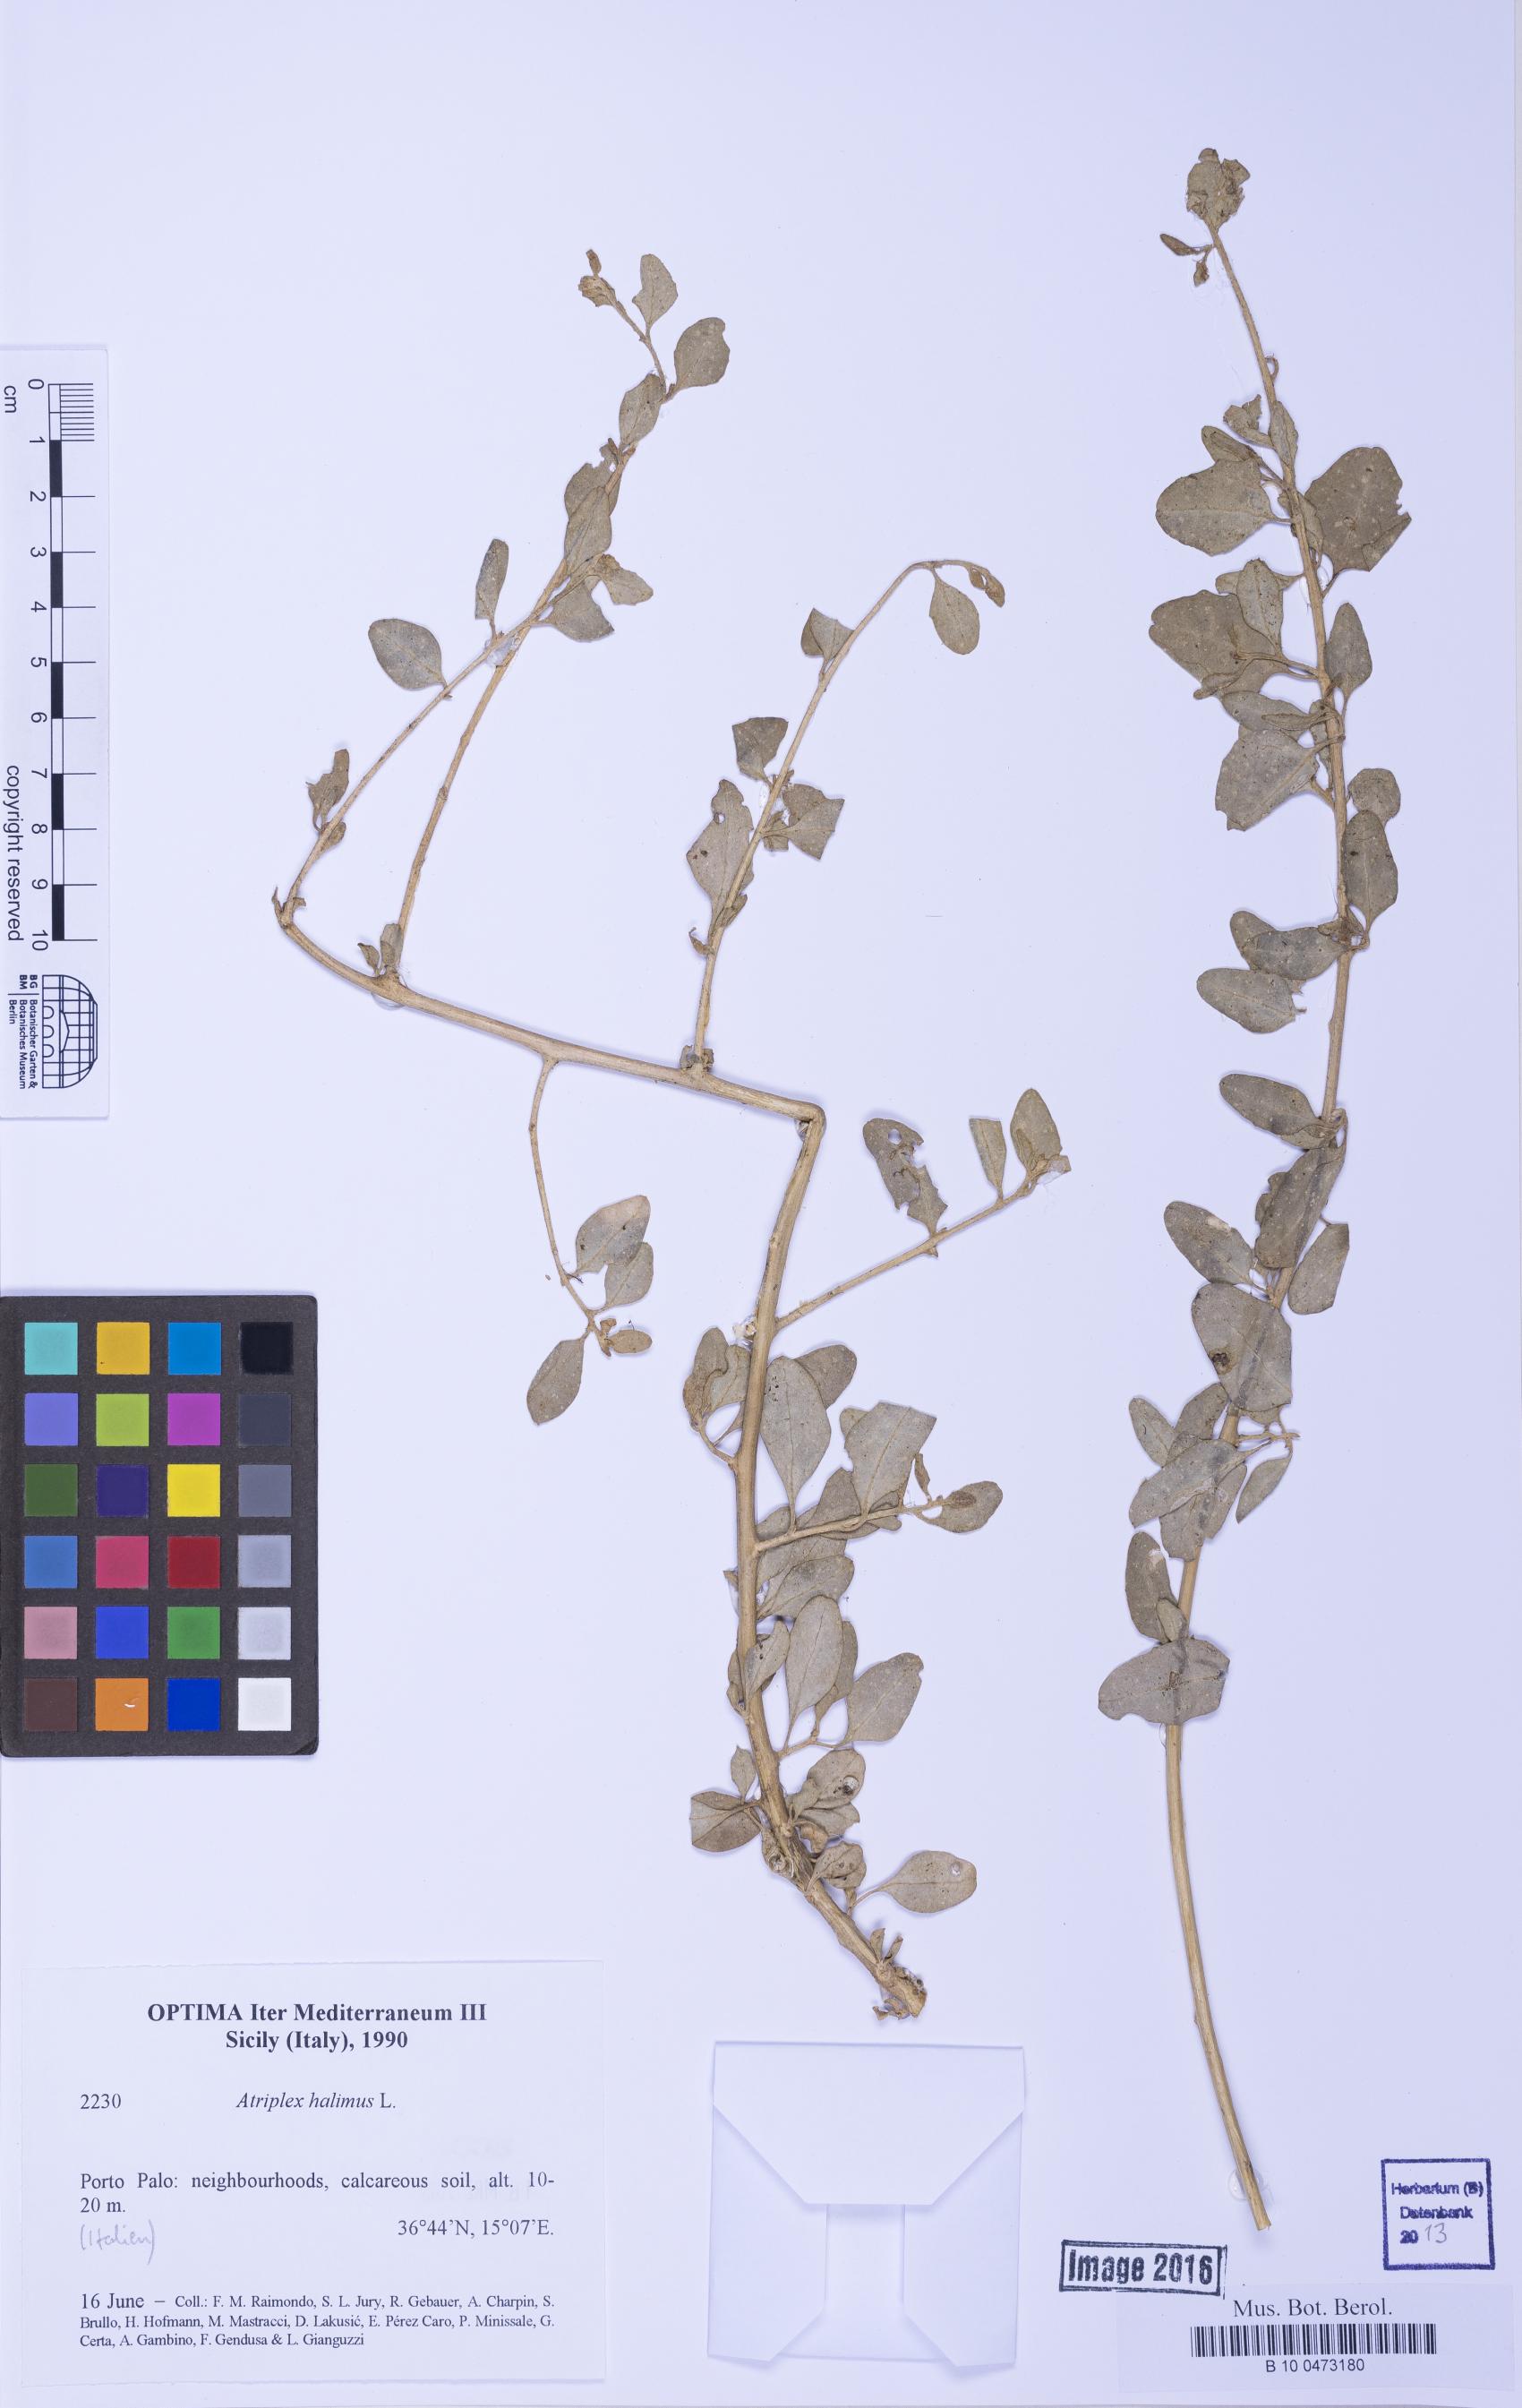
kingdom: Plantae
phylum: Tracheophyta
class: Magnoliopsida
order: Caryophyllales
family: Amaranthaceae
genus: Atriplex
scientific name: Atriplex halimus
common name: Shrubby orache
